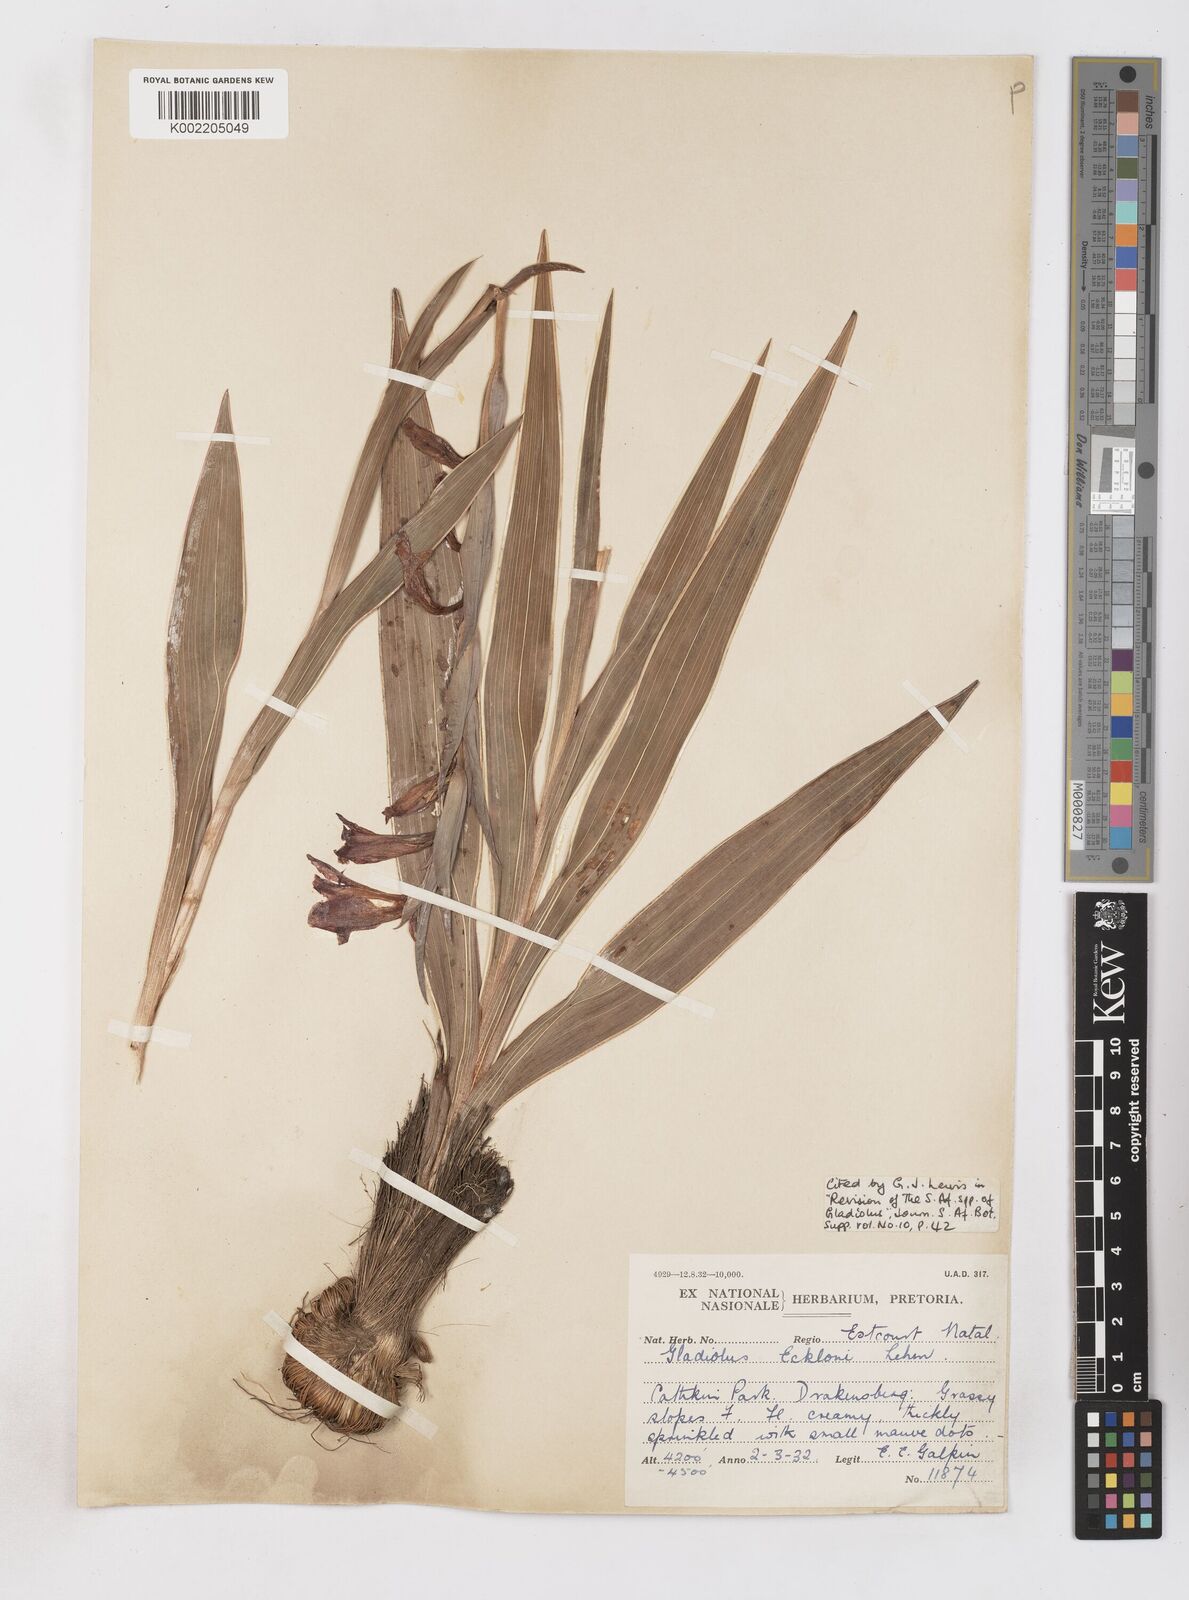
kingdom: Plantae
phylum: Tracheophyta
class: Liliopsida
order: Asparagales
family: Iridaceae
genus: Gladiolus
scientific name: Gladiolus ecklonii
